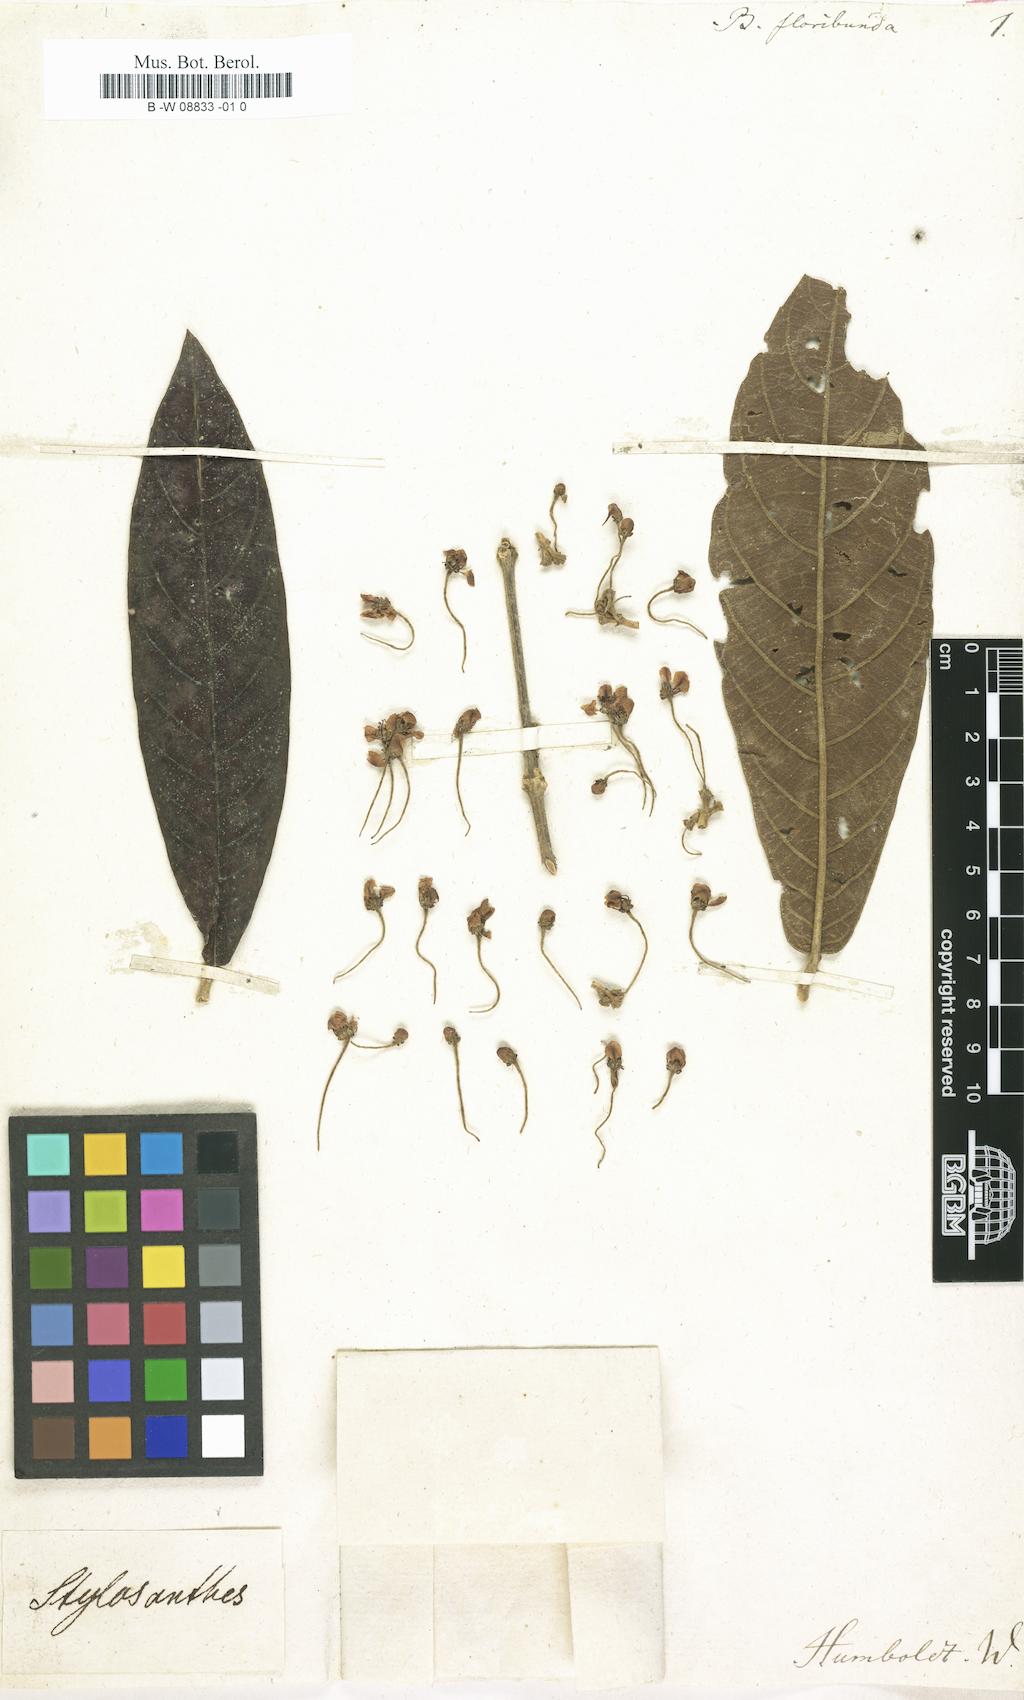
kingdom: Plantae
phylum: Tracheophyta
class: Magnoliopsida
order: Malpighiales
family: Malpighiaceae
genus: Stigmaphyllon
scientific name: Stigmaphyllon floribundum
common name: Bull wiss
